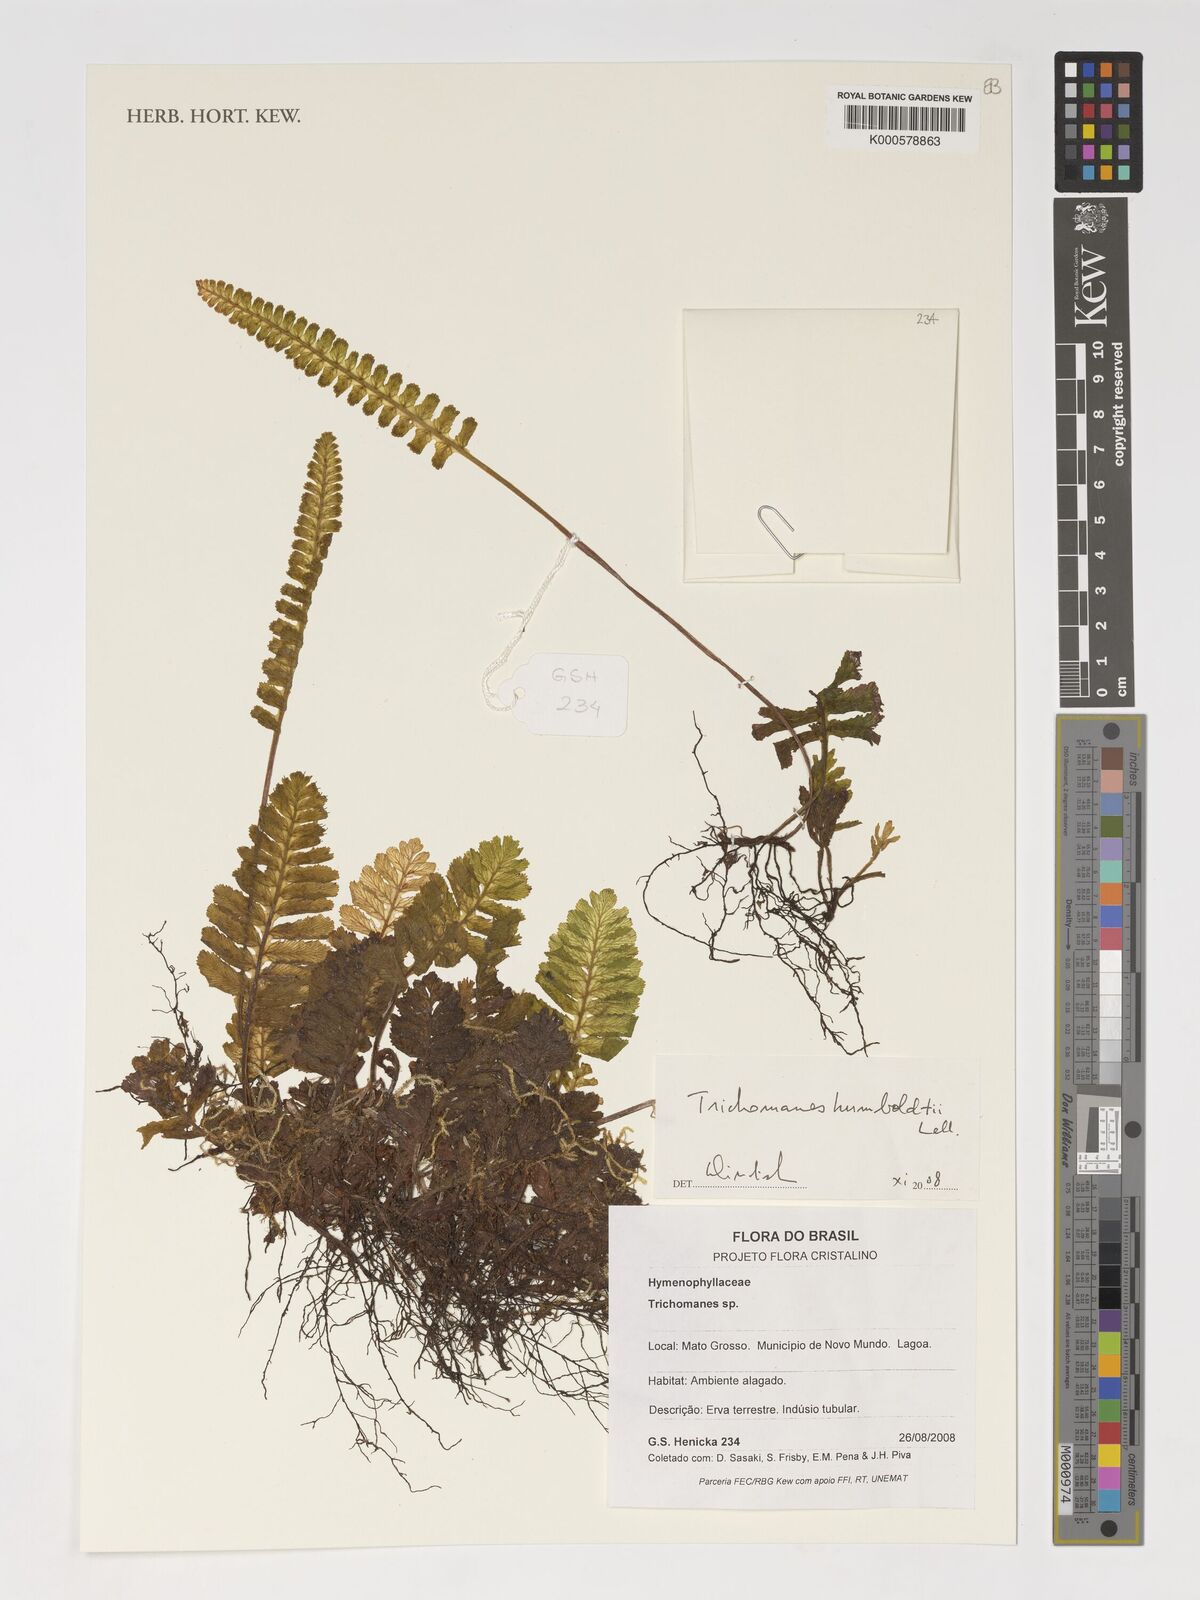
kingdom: Plantae
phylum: Tracheophyta
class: Polypodiopsida
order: Hymenophyllales
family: Hymenophyllaceae
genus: Trichomanes
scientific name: Trichomanes humboldtii
